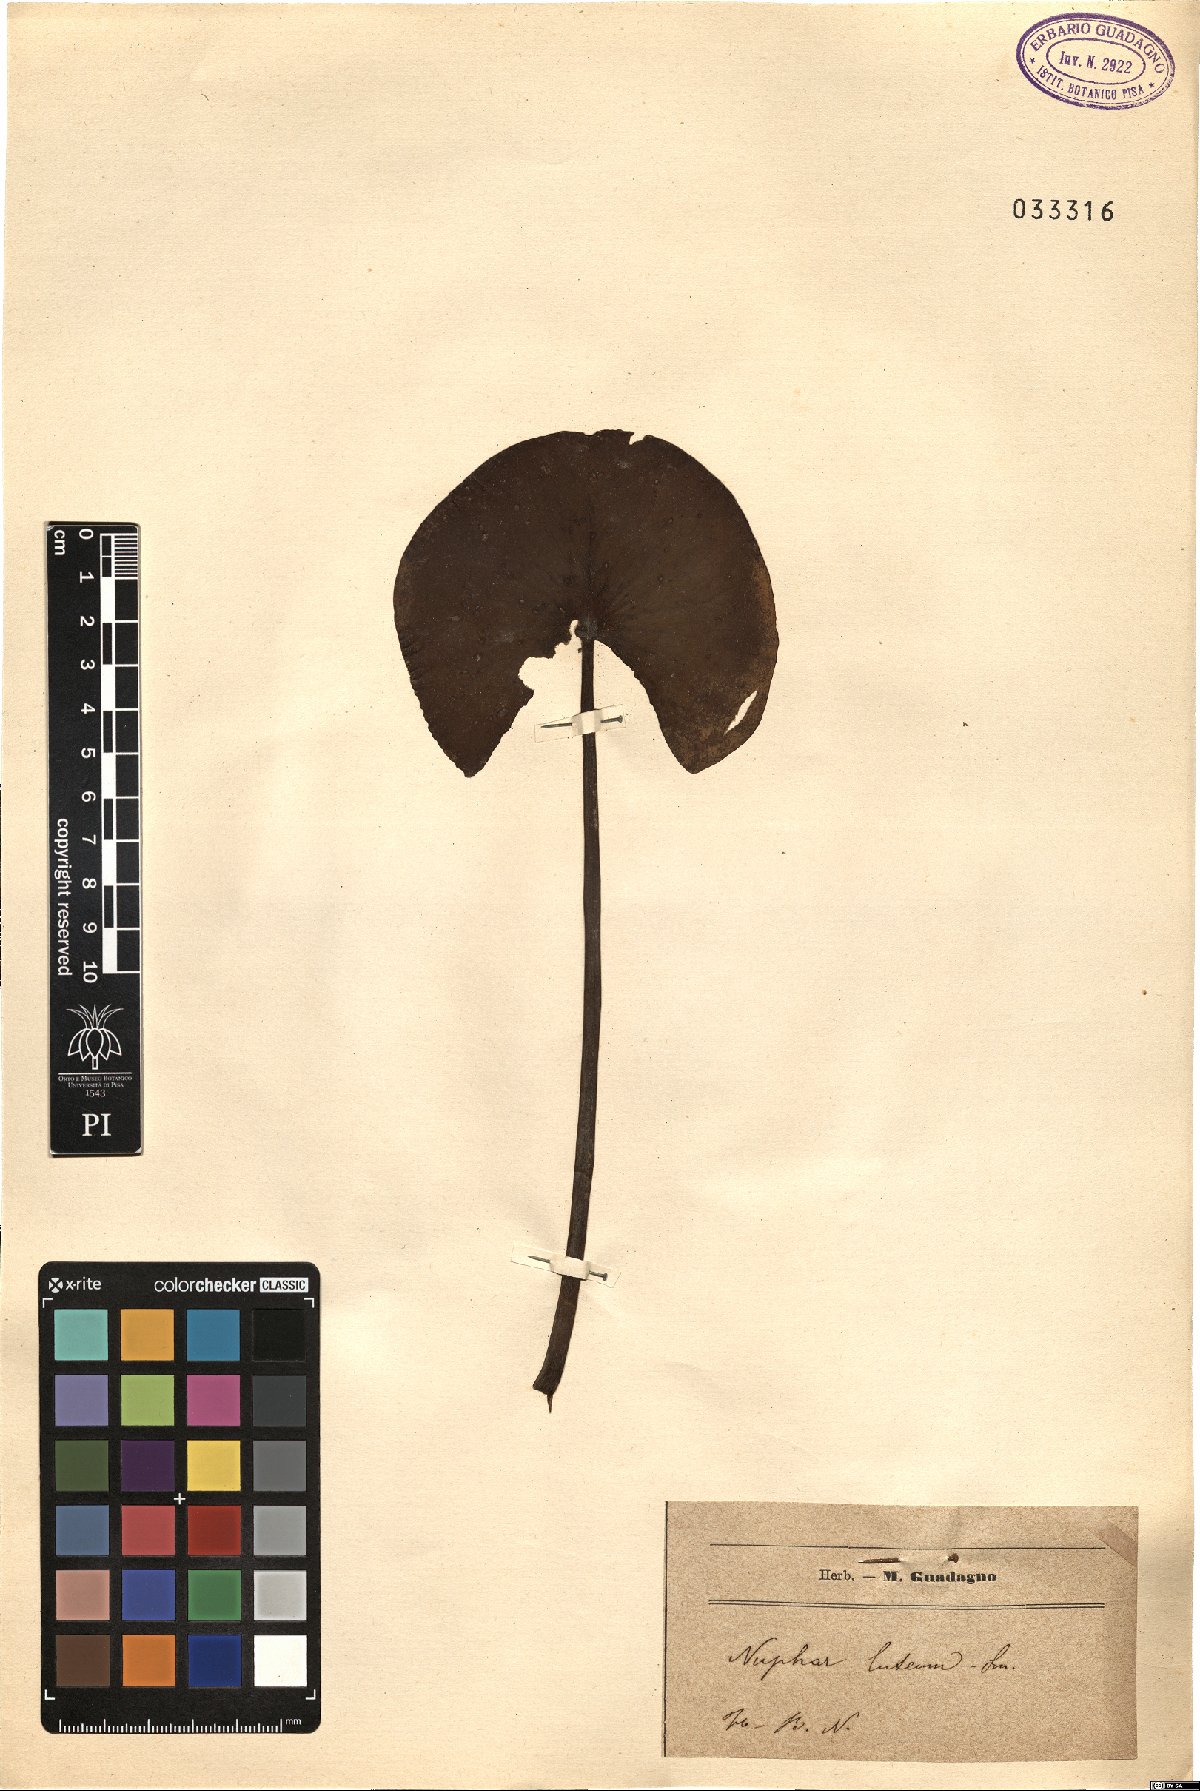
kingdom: Plantae
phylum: Tracheophyta
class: Magnoliopsida
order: Nymphaeales
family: Nymphaeaceae
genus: Nuphar
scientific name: Nuphar lutea
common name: Yellow water-lily
